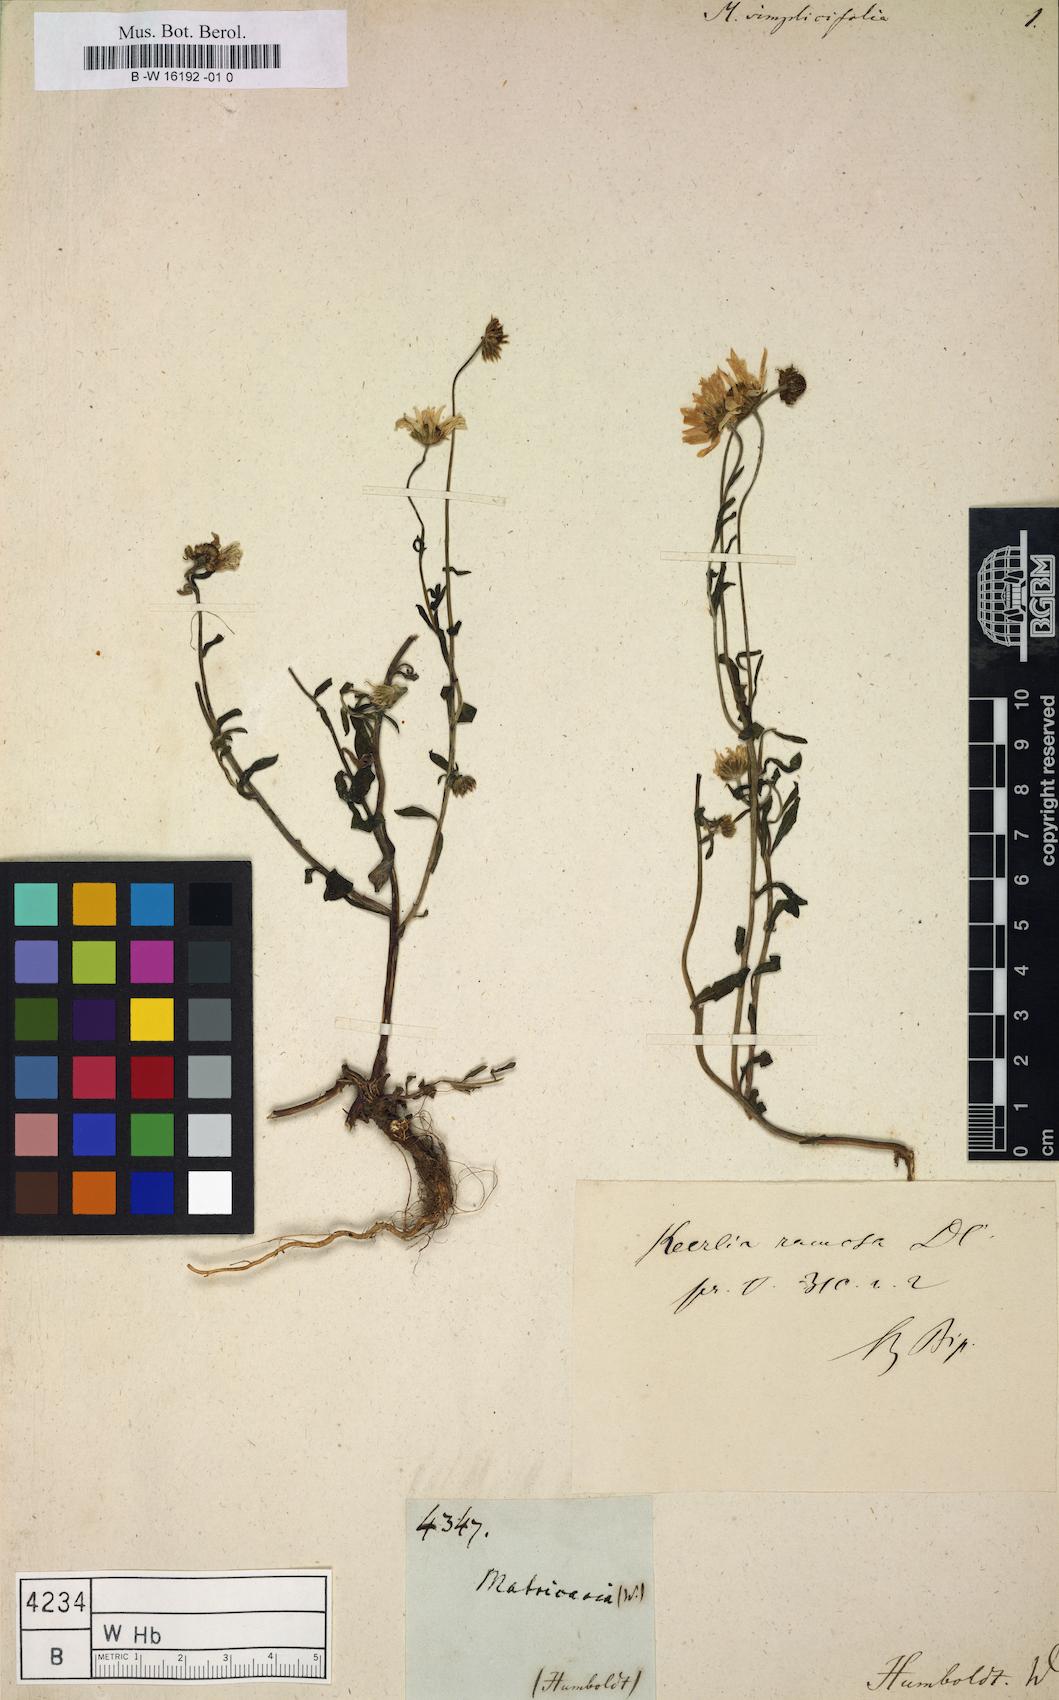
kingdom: Plantae
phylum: Tracheophyta
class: Magnoliopsida
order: Asterales
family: Asteraceae
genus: Matricaria
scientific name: Matricaria
